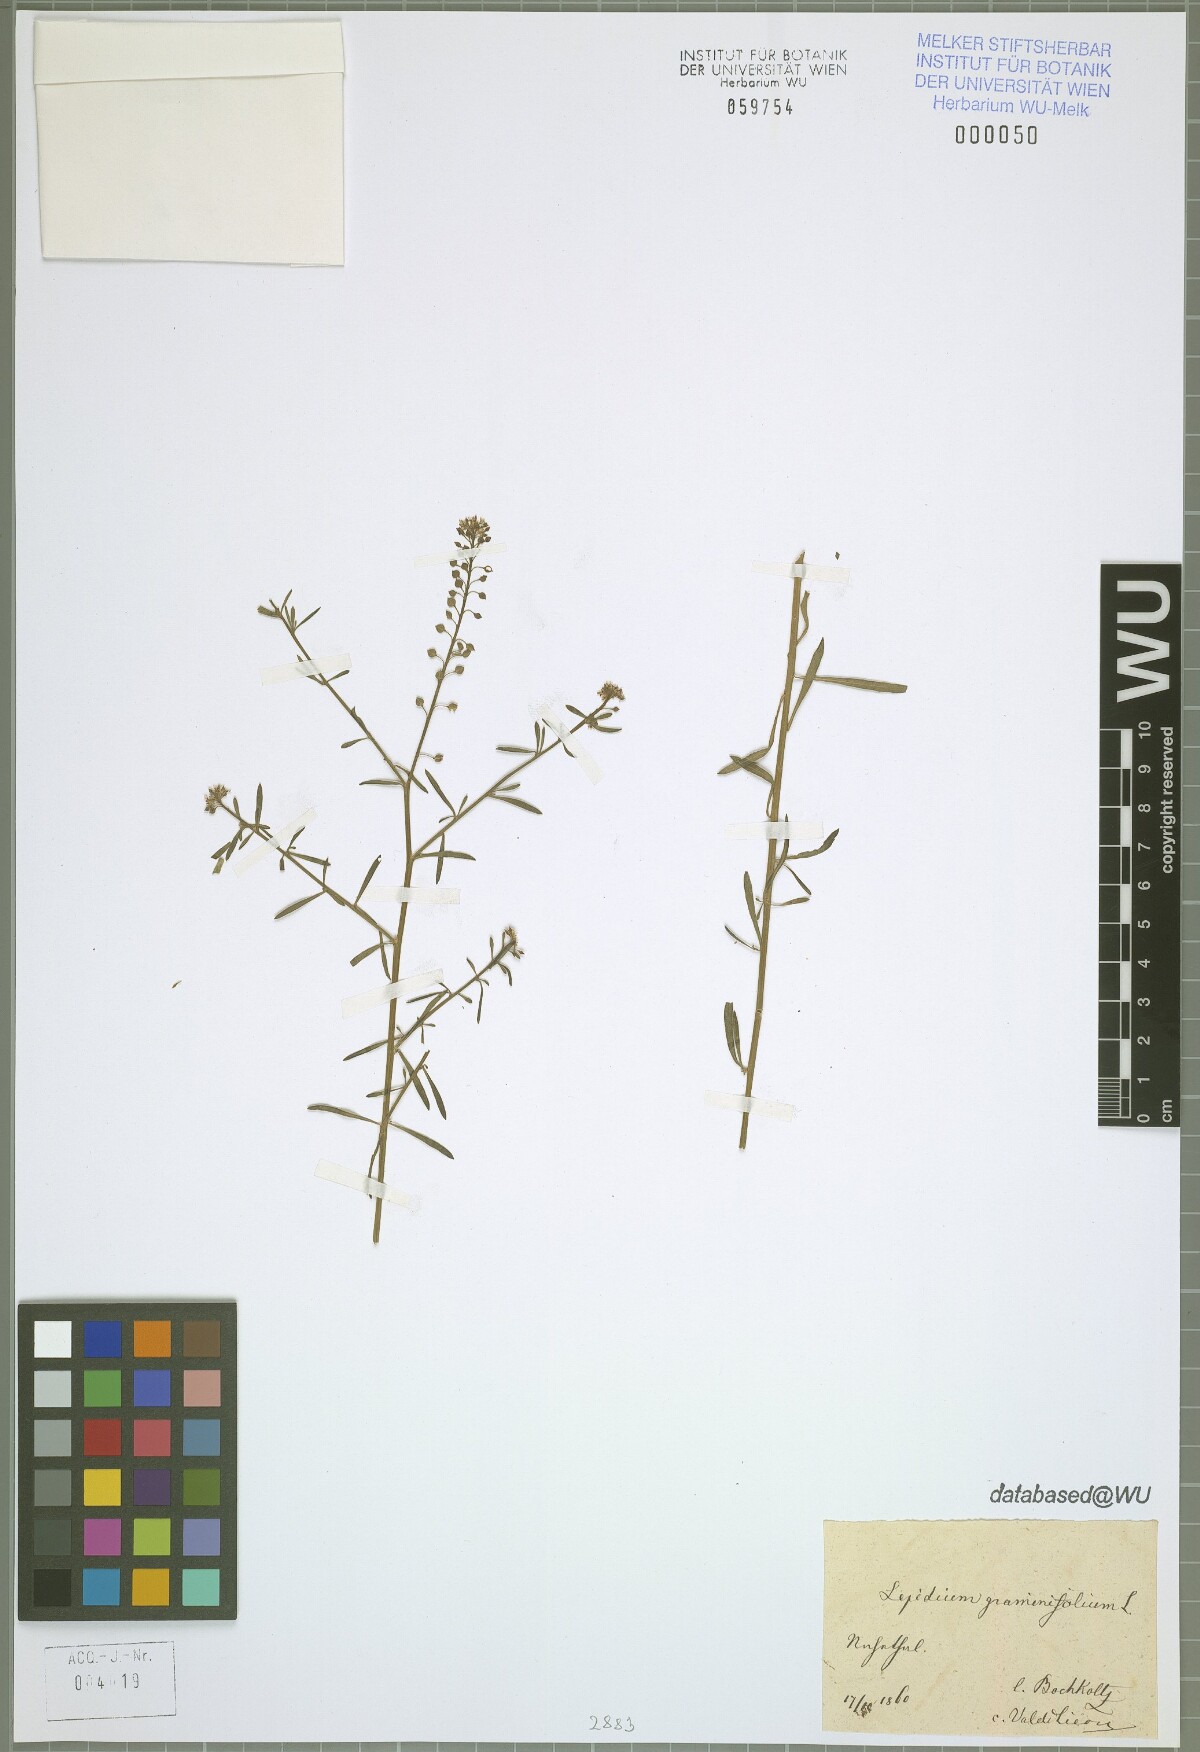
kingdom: Plantae
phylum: Tracheophyta
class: Magnoliopsida
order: Brassicales
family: Brassicaceae
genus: Lepidium
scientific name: Lepidium graminifolium
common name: Tall pepperwort
